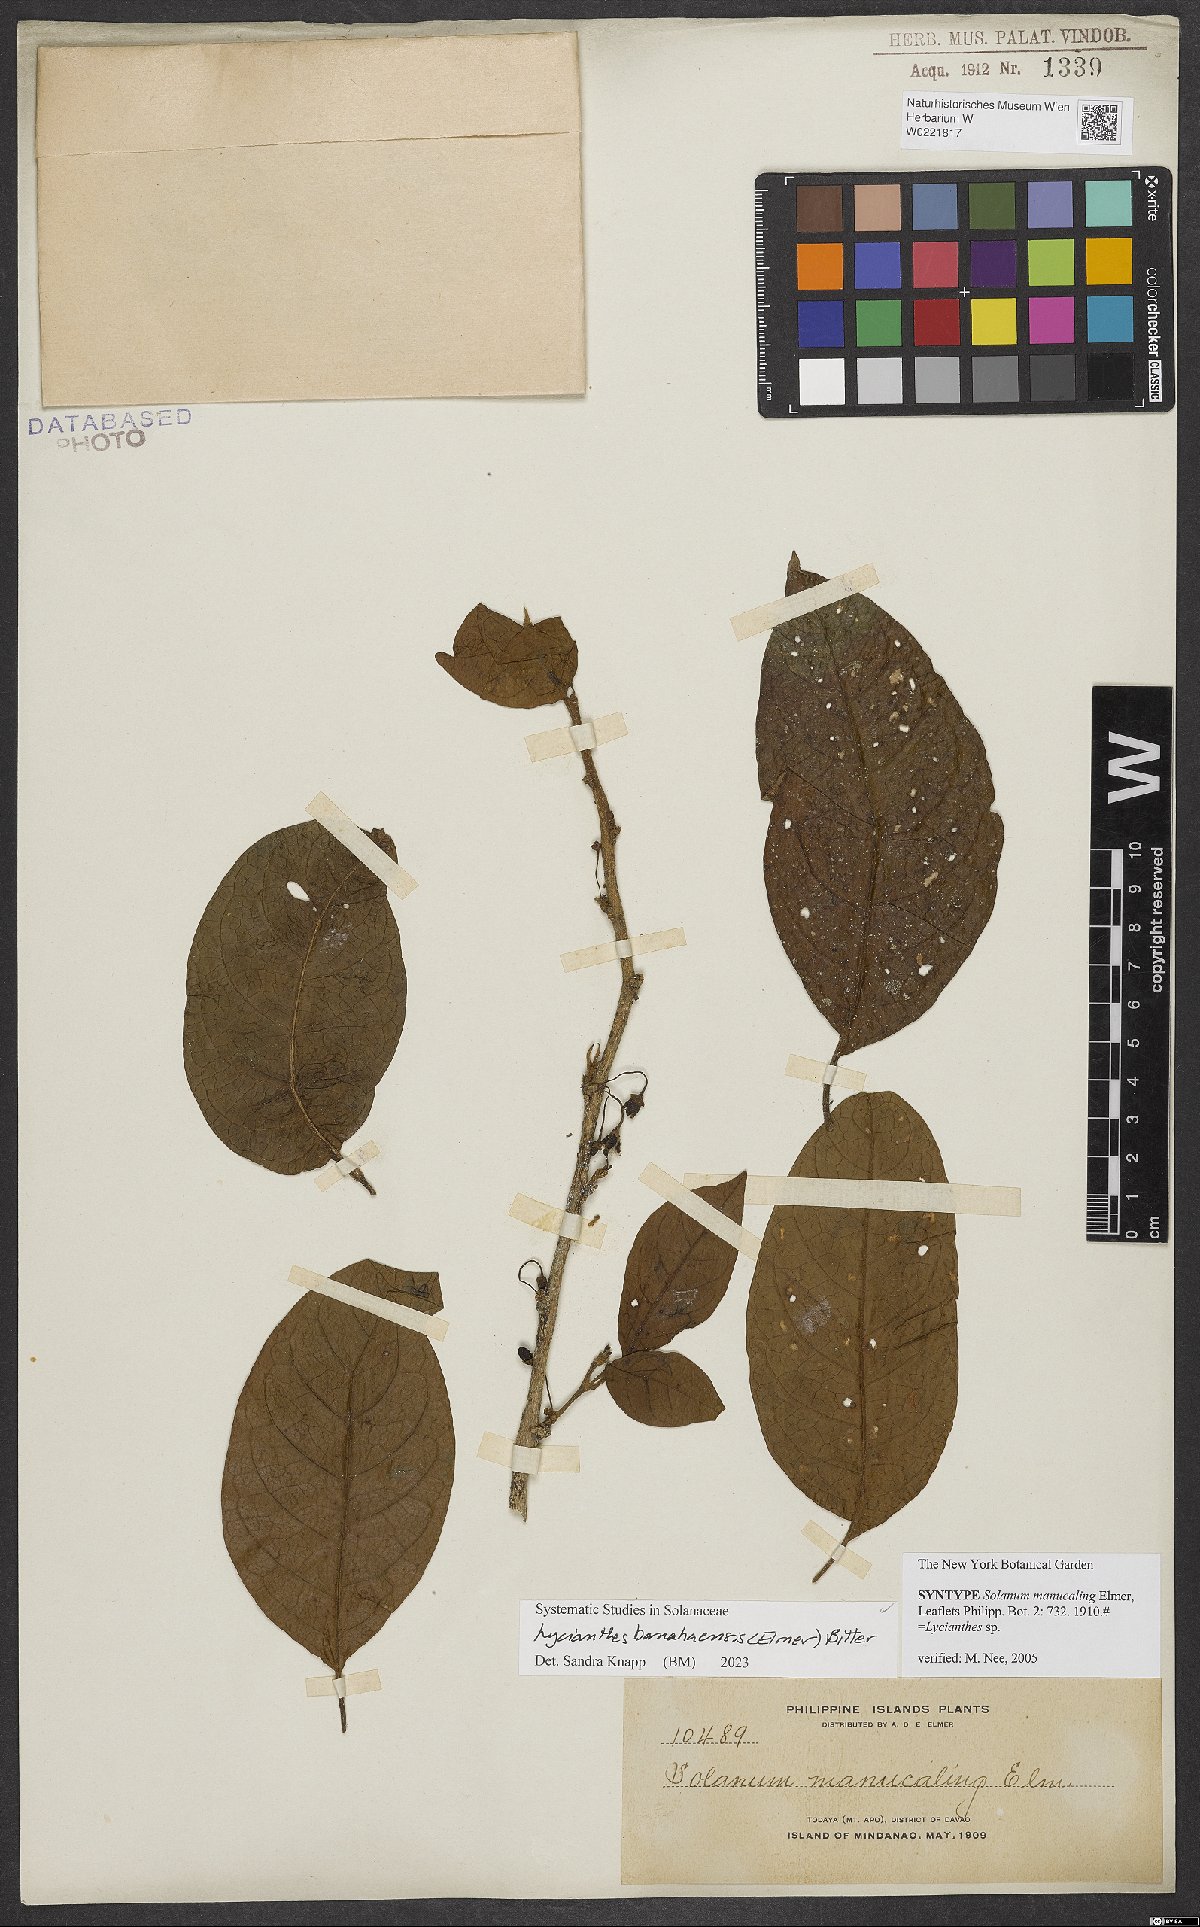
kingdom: Plantae
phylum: Tracheophyta
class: Magnoliopsida
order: Solanales
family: Solanaceae
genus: Lycianthes
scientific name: Lycianthes banahaensis
